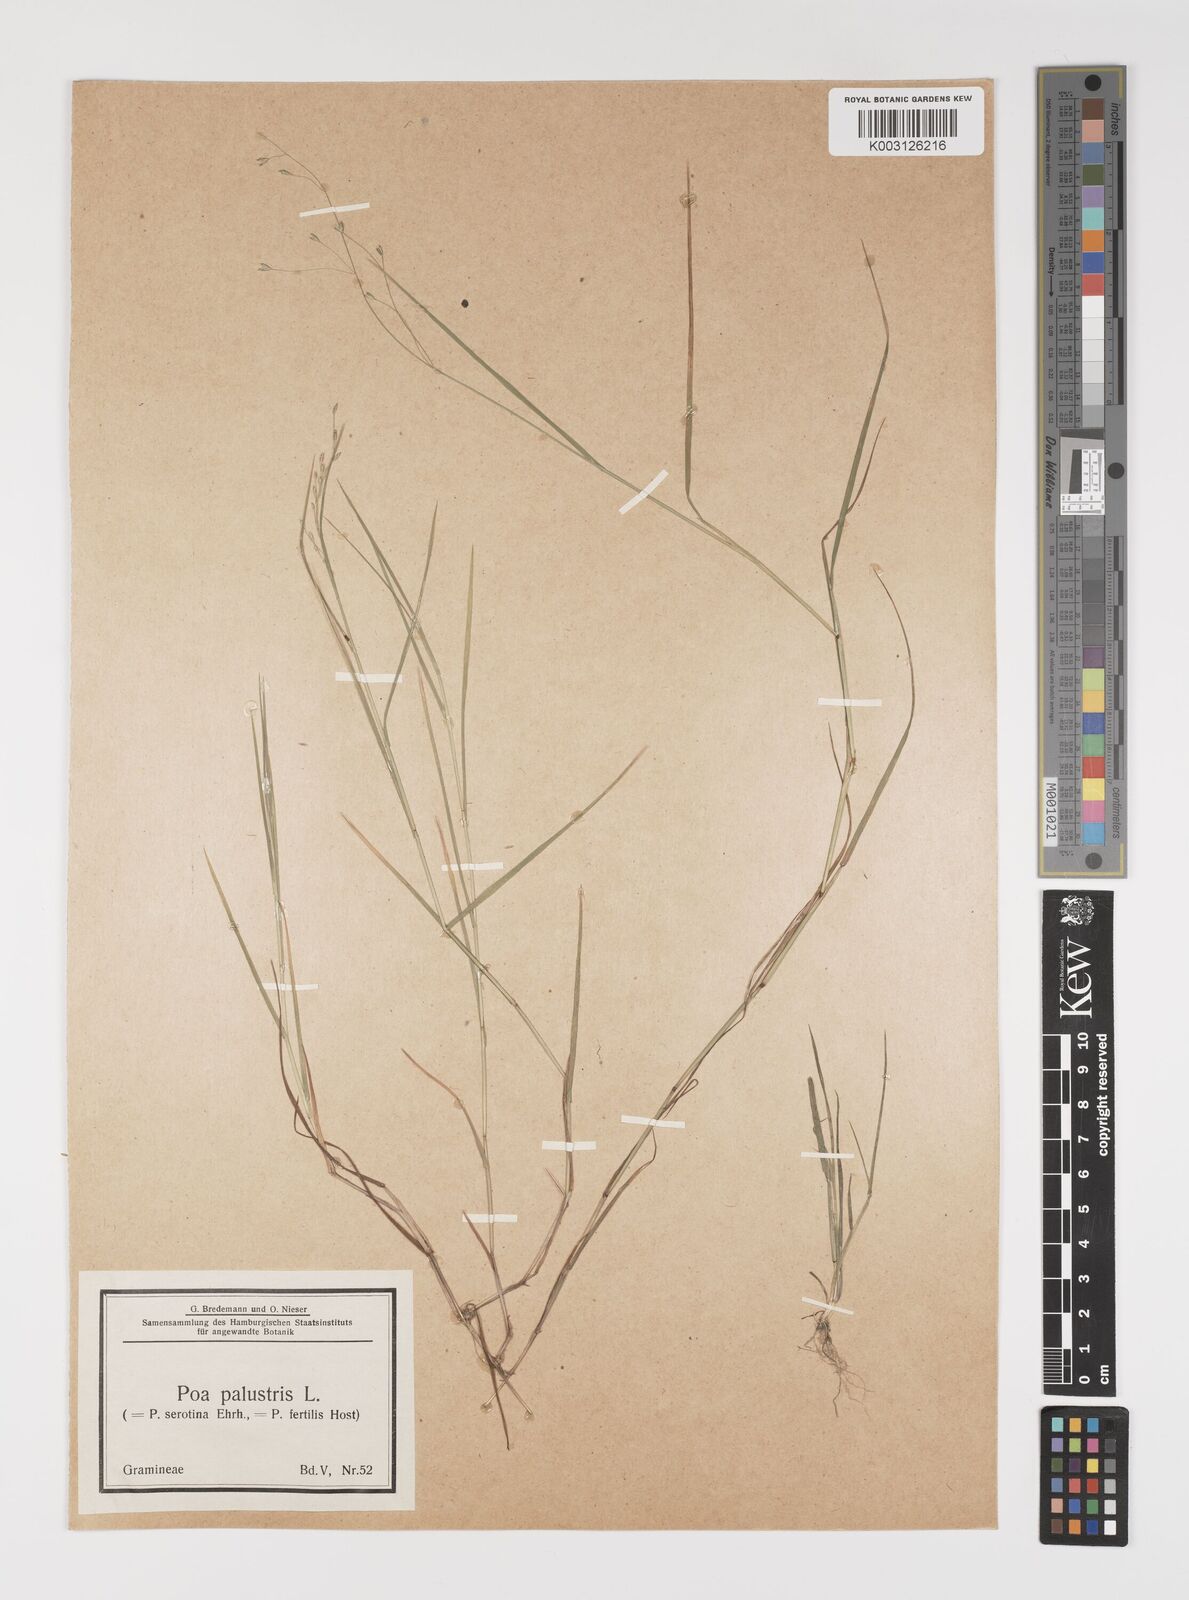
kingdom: Plantae
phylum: Tracheophyta
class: Liliopsida
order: Poales
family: Poaceae
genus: Poa
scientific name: Poa palustris
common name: Swamp meadow-grass
